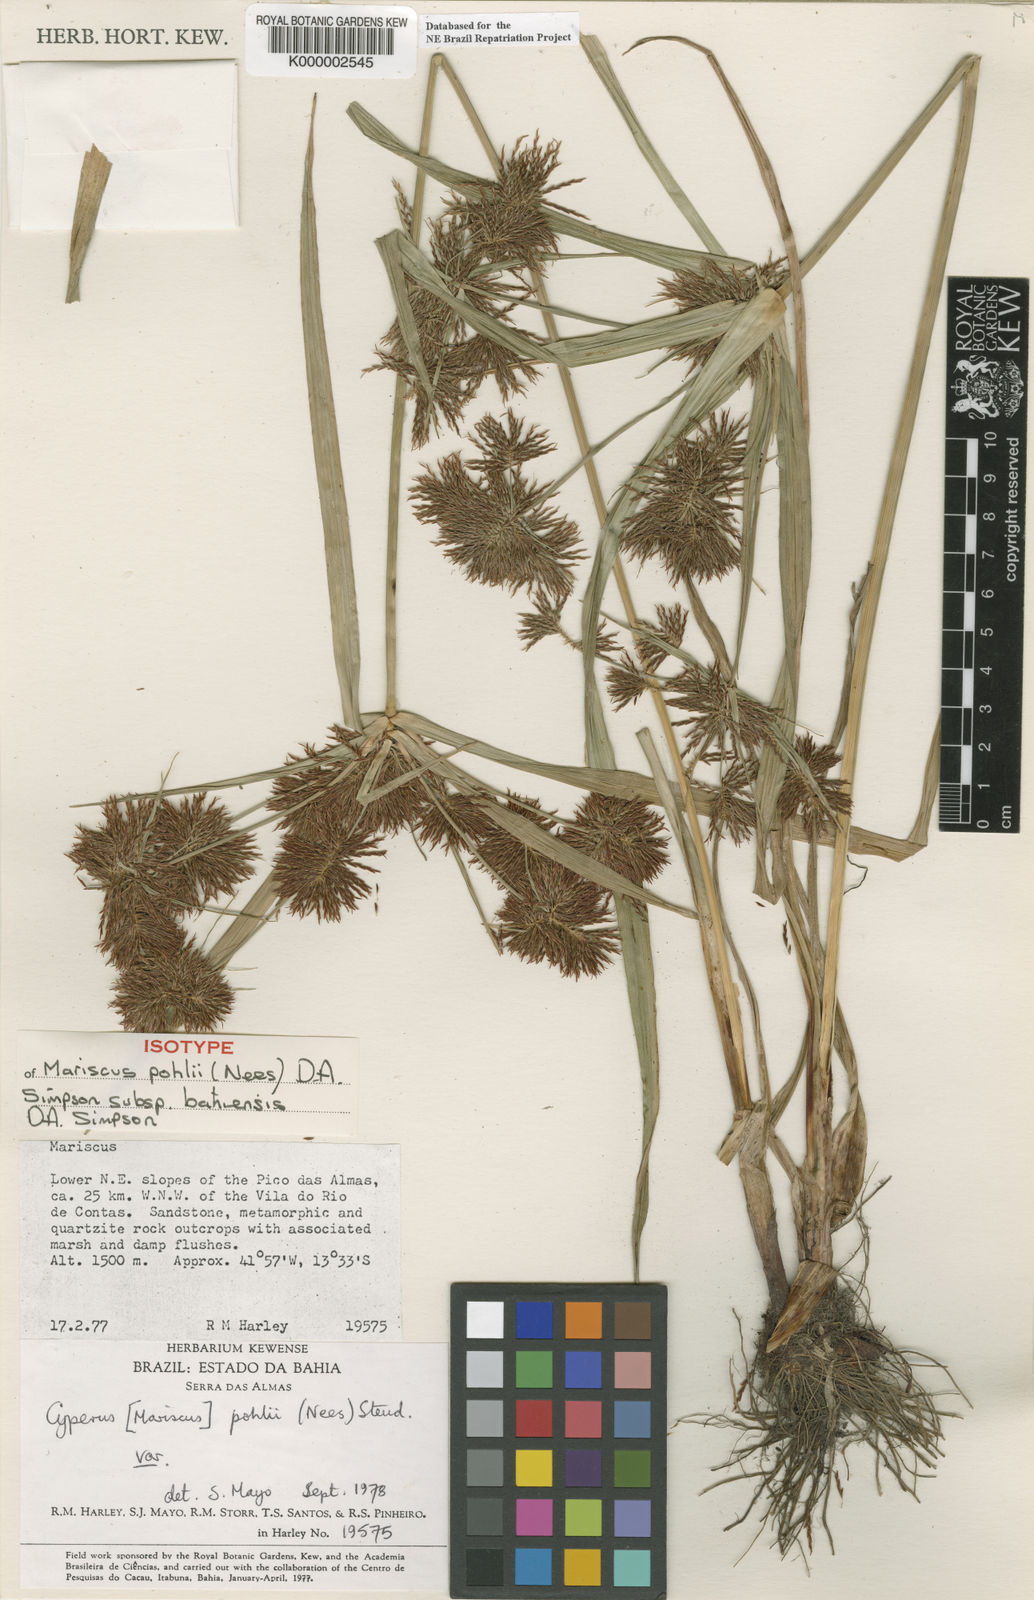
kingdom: Plantae
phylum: Tracheophyta
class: Liliopsida
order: Poales
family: Cyperaceae
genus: Cyperus
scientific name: Cyperus pohlii
